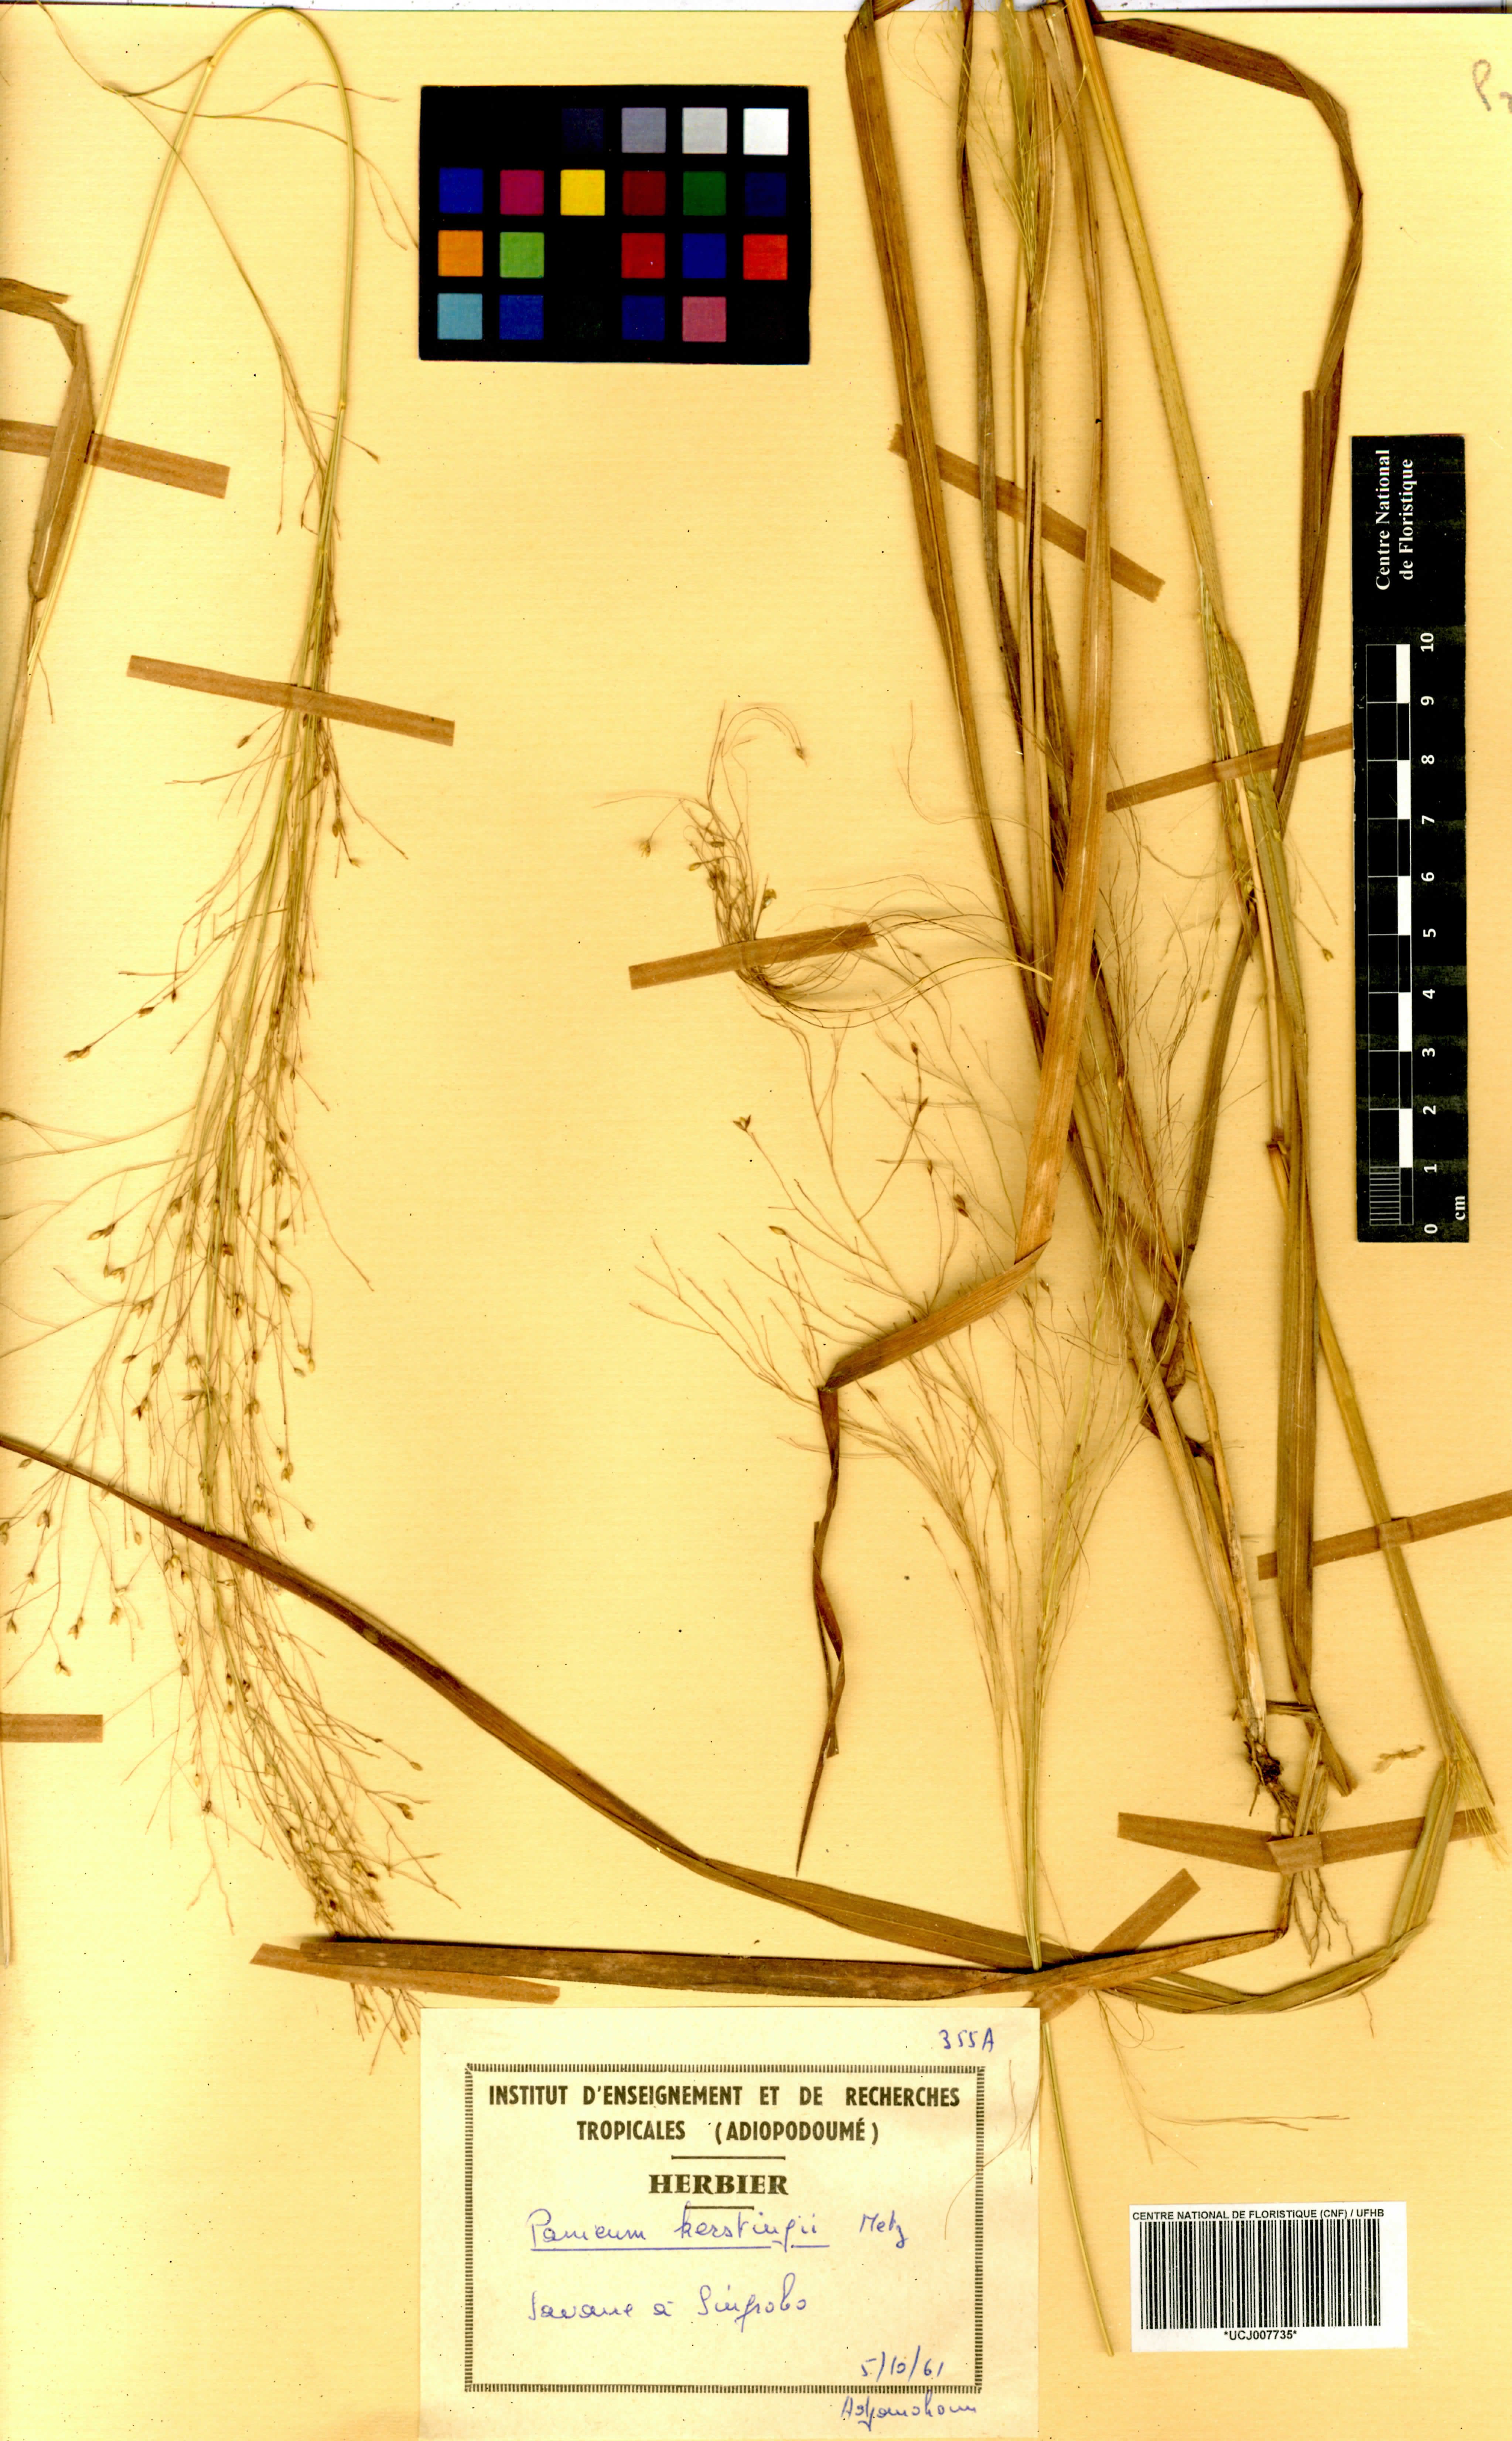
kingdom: Plantae
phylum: Tracheophyta
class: Liliopsida
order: Poales
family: Poaceae
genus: Panicum
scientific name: Panicum pansum
